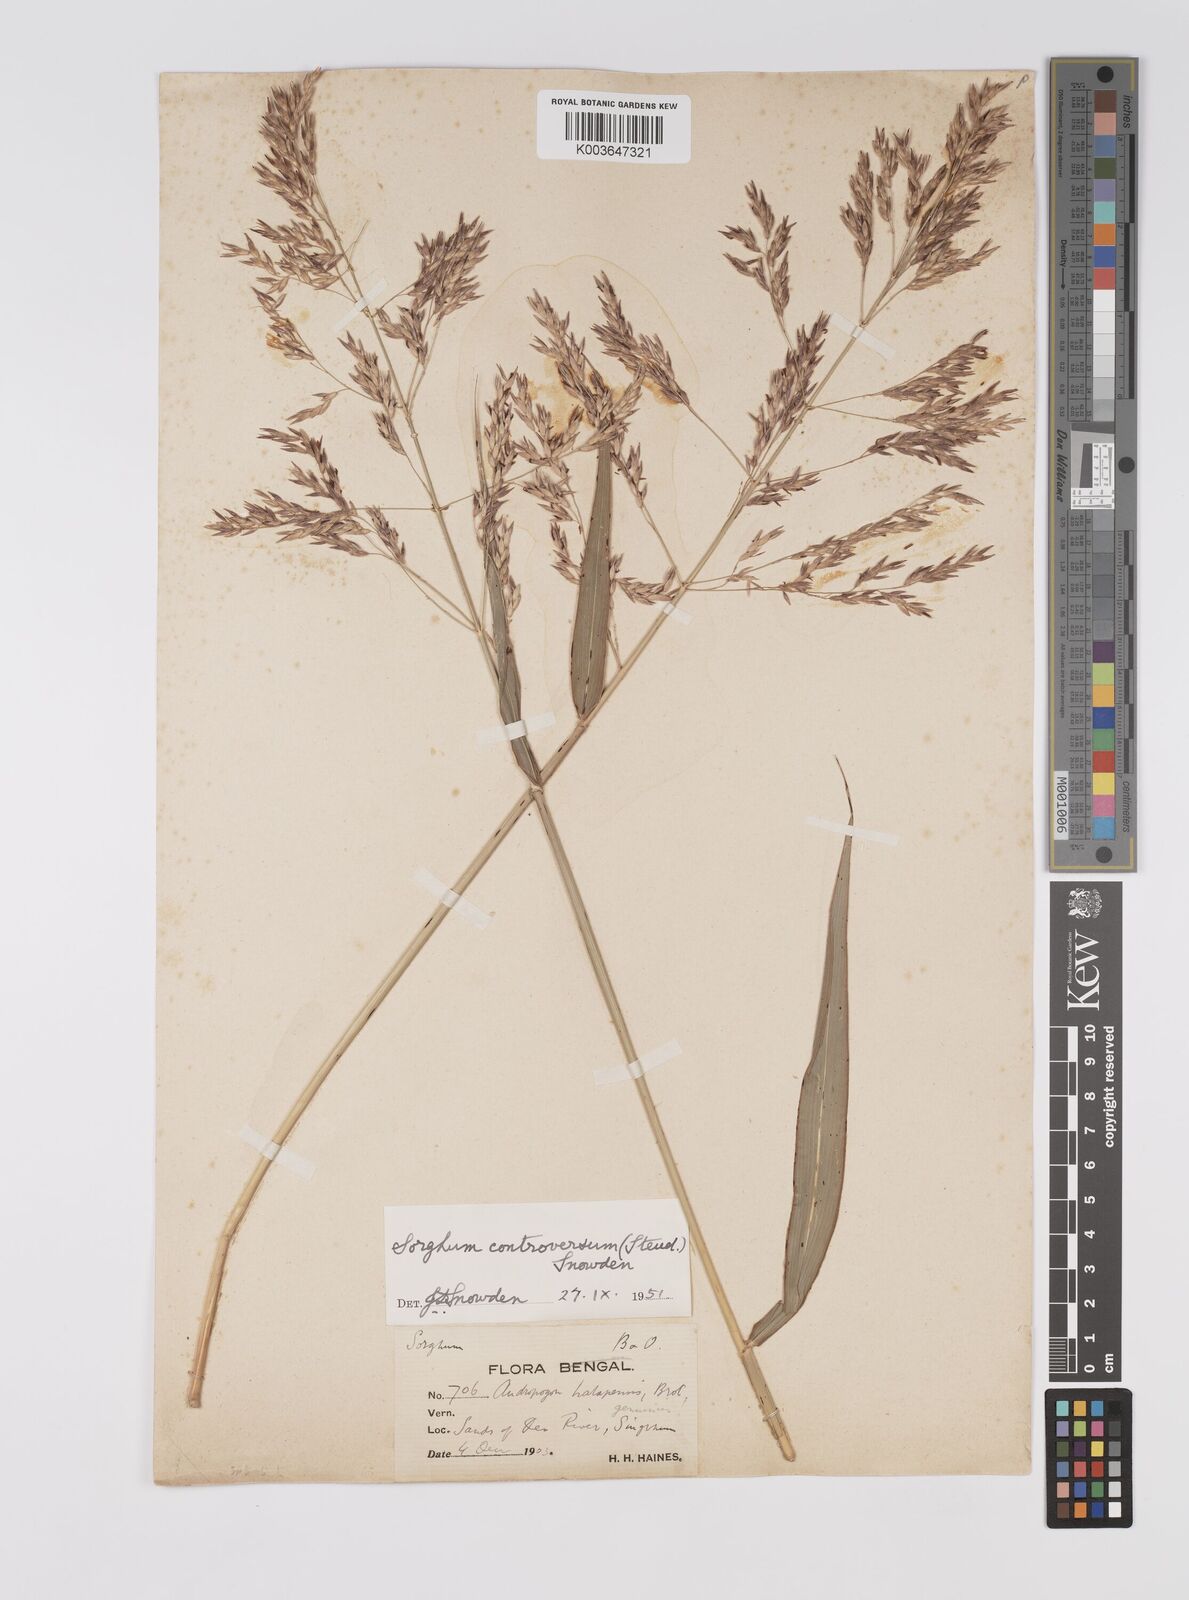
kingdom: Plantae
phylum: Tracheophyta
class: Liliopsida
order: Poales
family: Poaceae
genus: Sorghum
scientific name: Sorghum controversum
